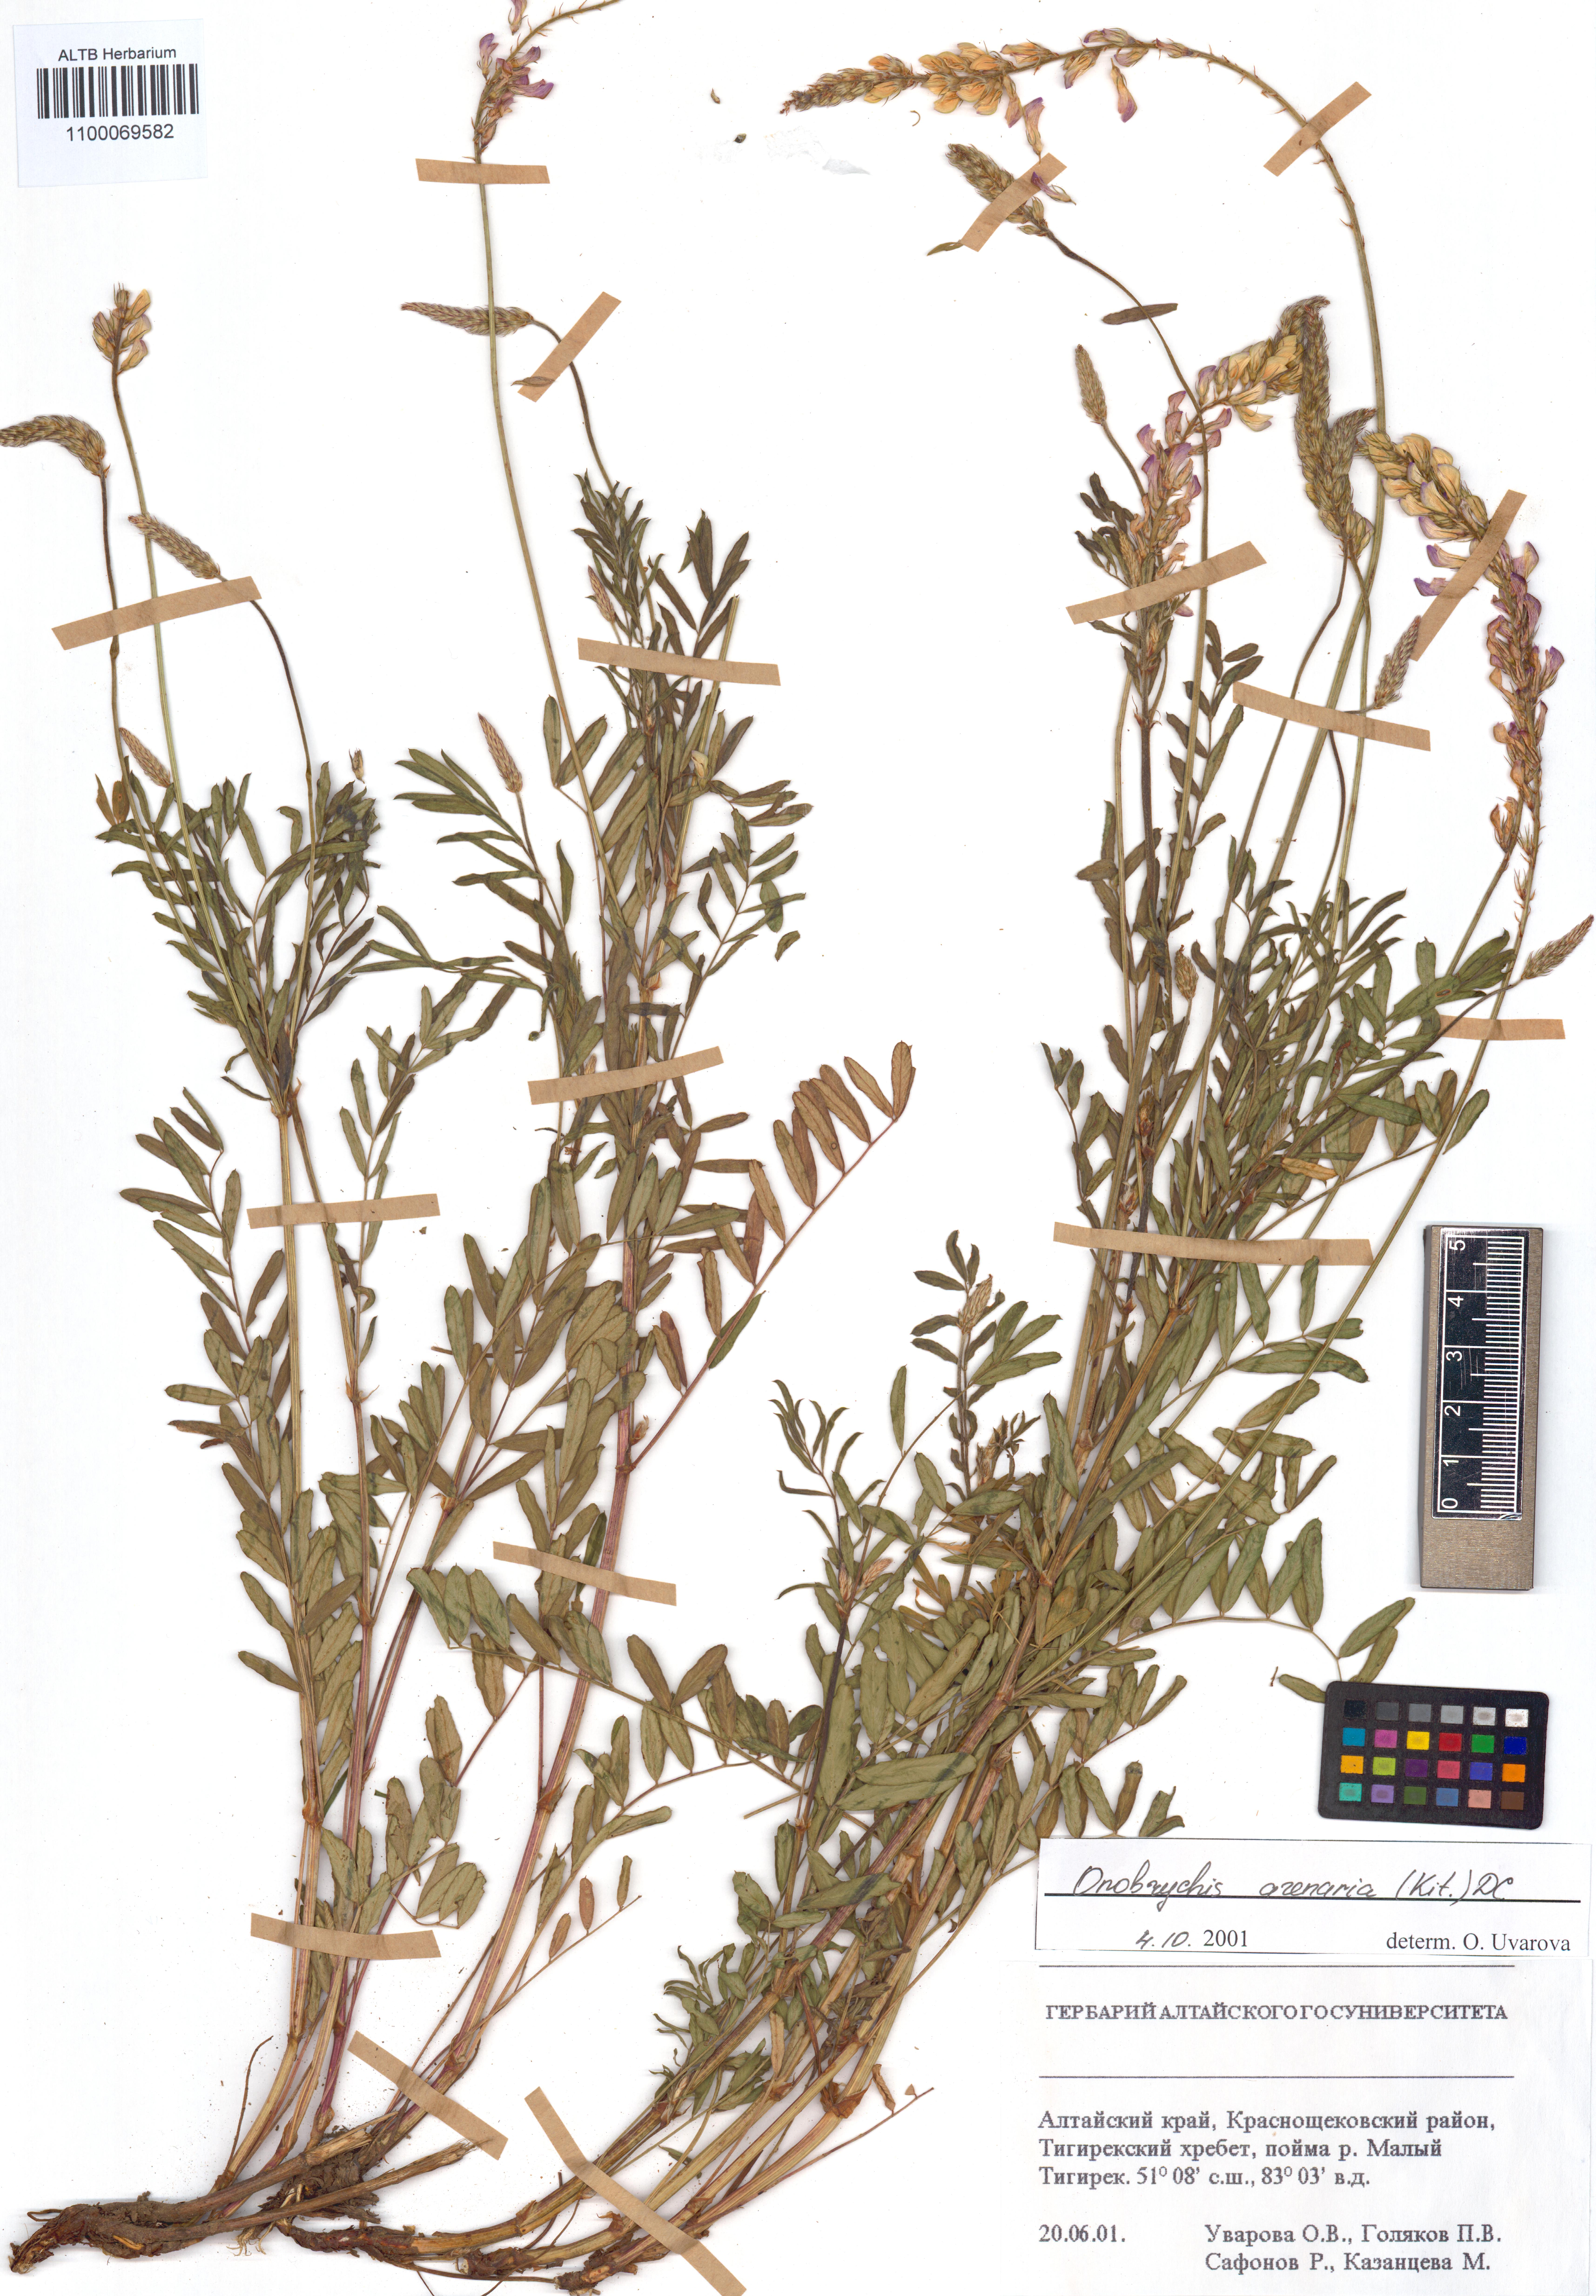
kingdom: Plantae
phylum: Tracheophyta
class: Magnoliopsida
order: Fabales
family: Fabaceae
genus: Onobrychis
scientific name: Onobrychis arenaria
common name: Sand esparcet
